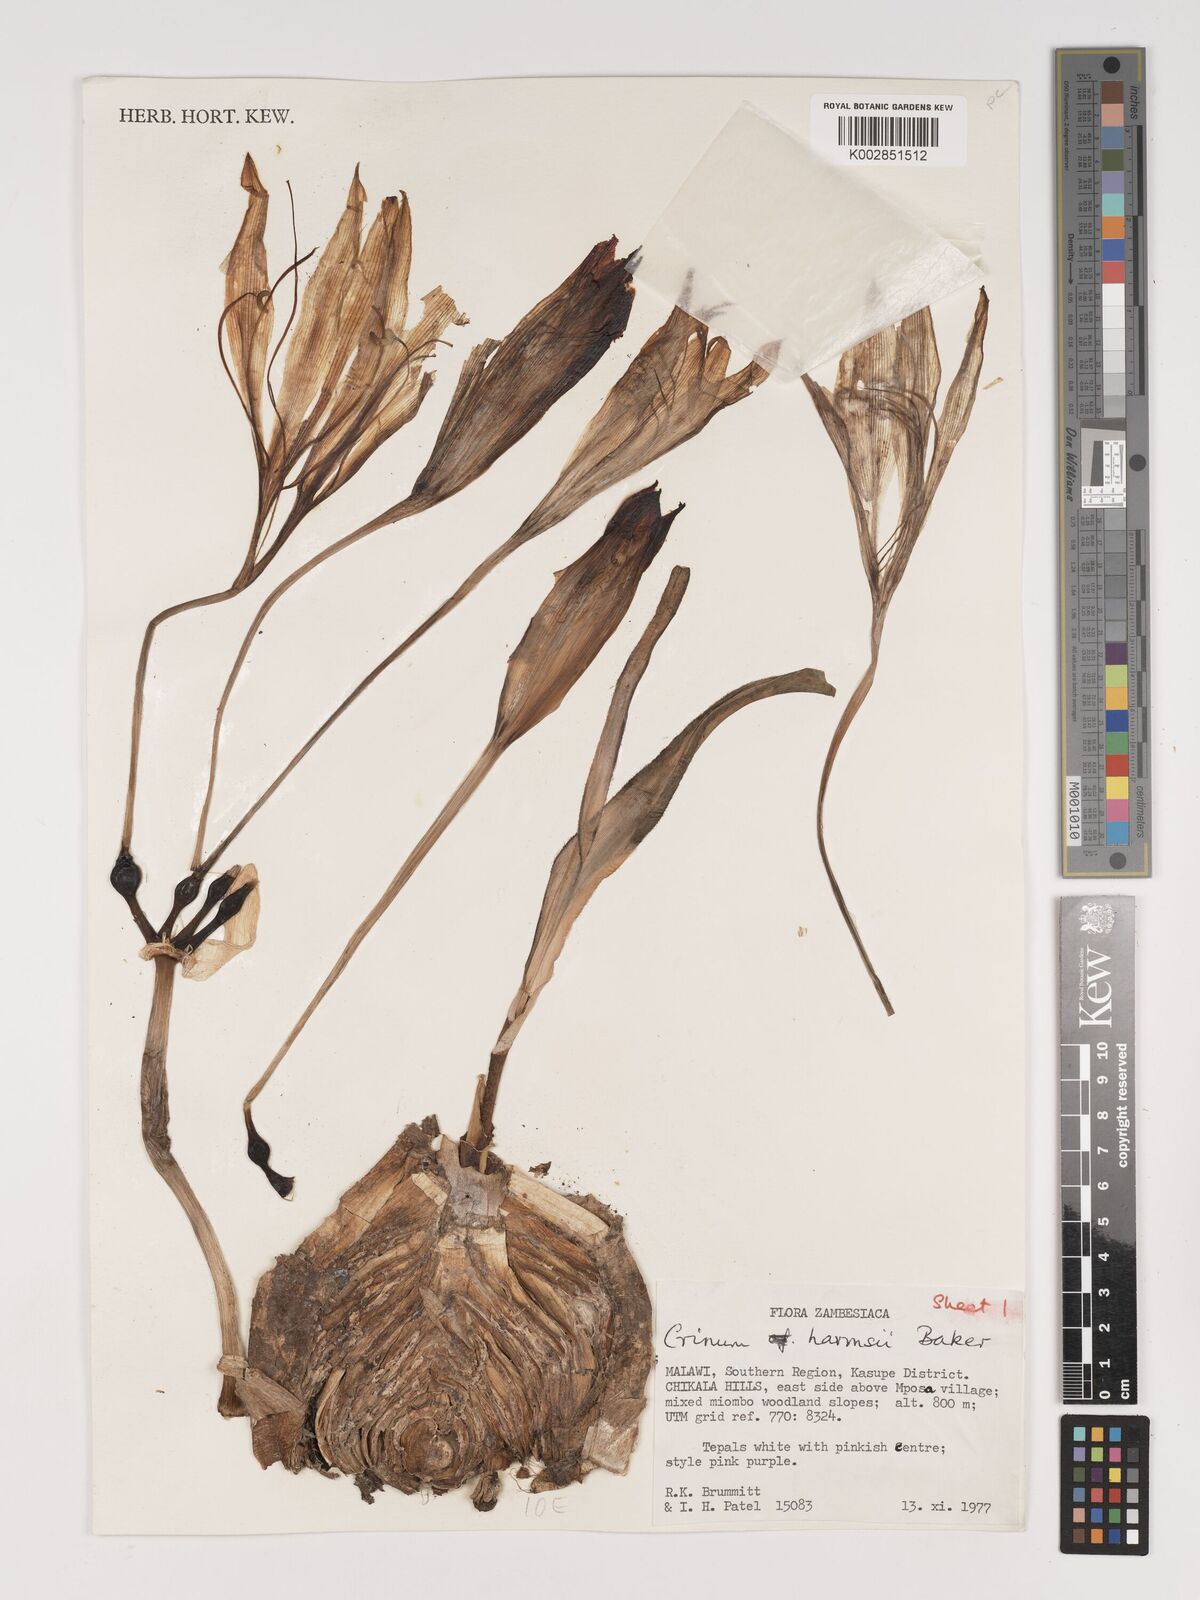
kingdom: Plantae
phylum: Tracheophyta
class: Liliopsida
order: Asparagales
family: Amaryllidaceae
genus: Crinum
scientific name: Crinum harmsii
